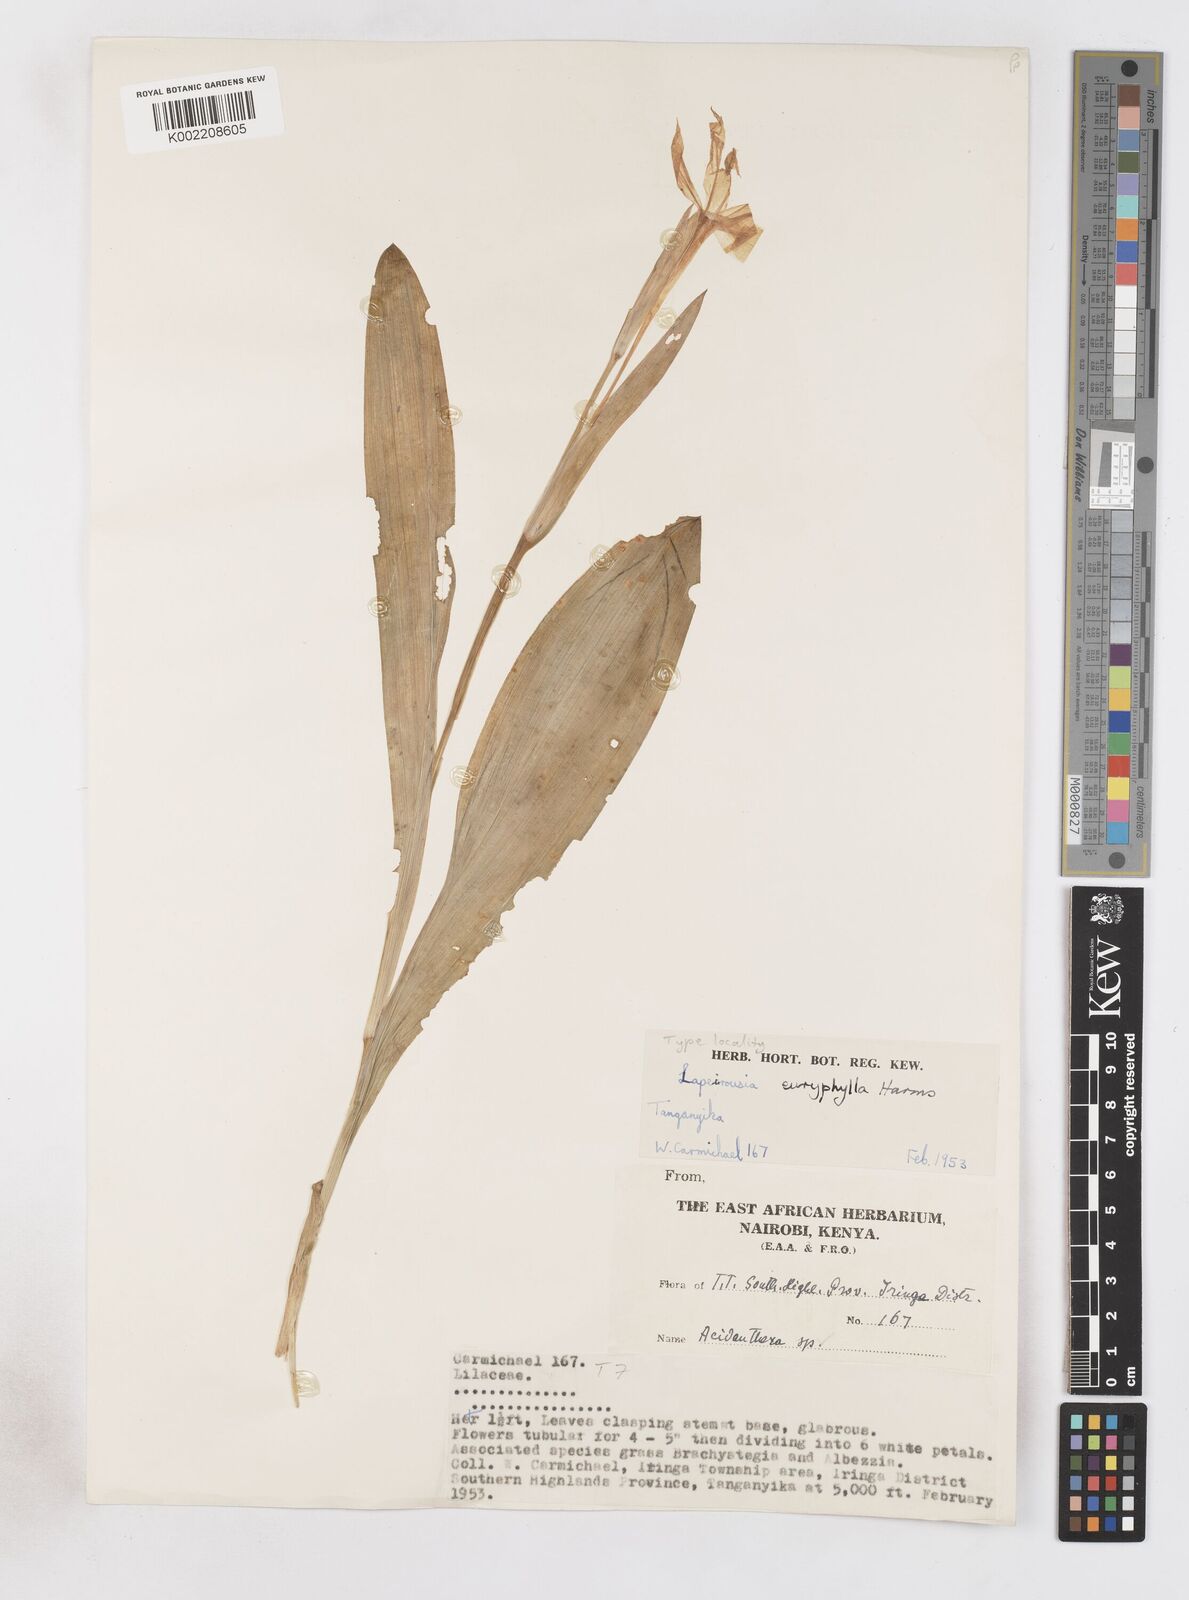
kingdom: Plantae
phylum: Tracheophyta
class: Liliopsida
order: Asparagales
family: Iridaceae
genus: Savannosiphon
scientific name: Savannosiphon euryphylla
